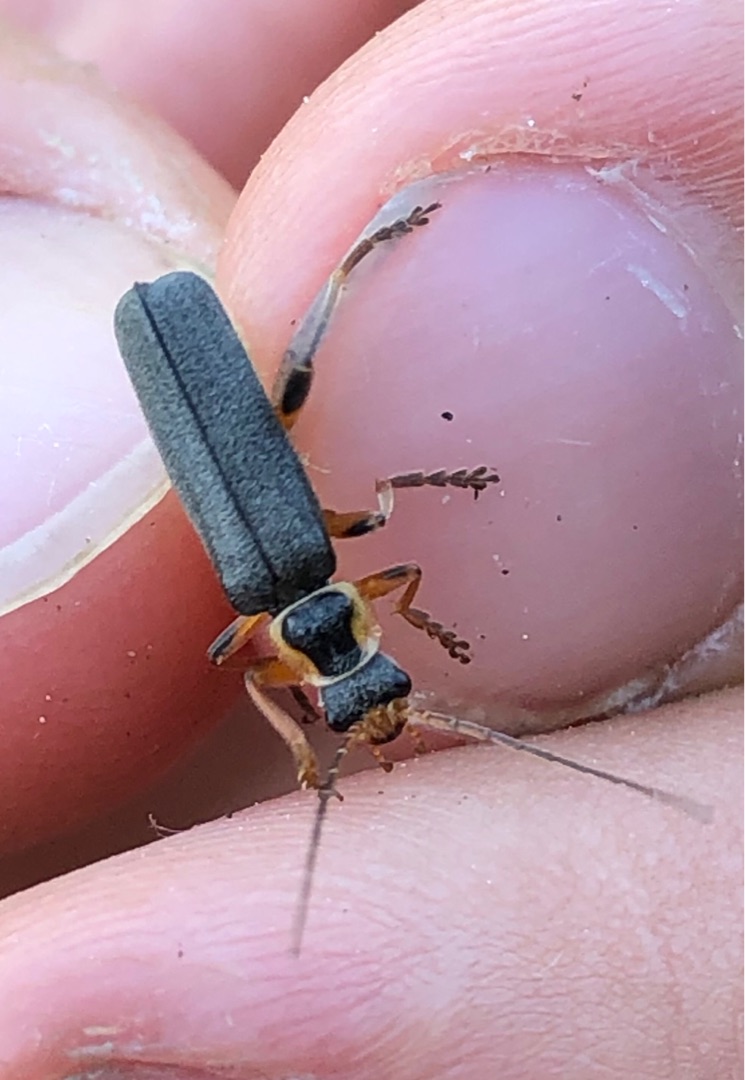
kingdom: Animalia
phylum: Arthropoda
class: Insecta
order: Coleoptera
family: Cantharidae
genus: Cantharis
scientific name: Cantharis nigricans
